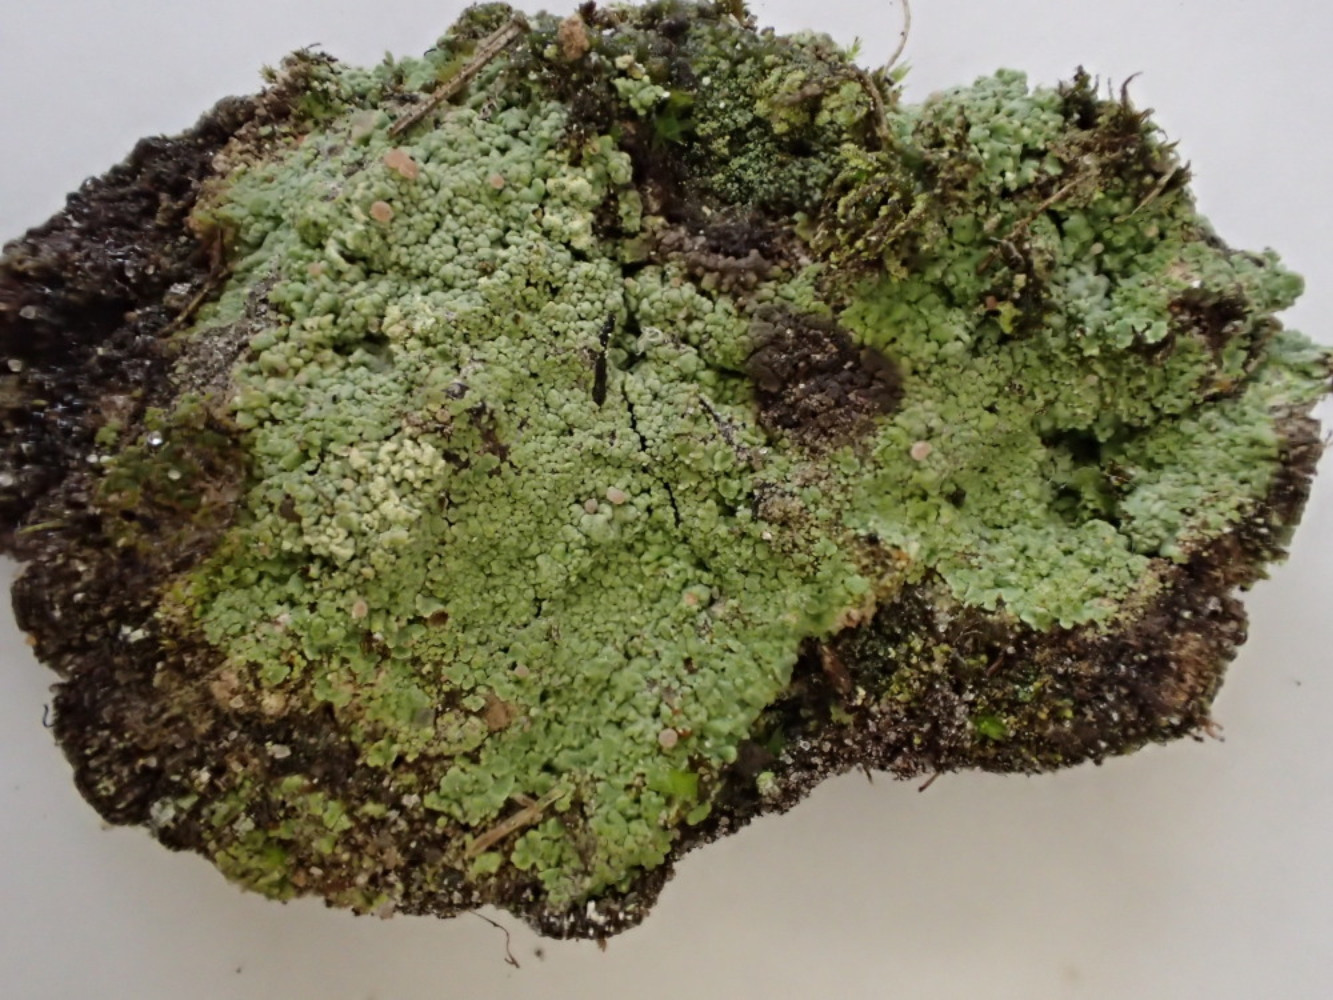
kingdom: Fungi
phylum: Ascomycota
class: Lecanoromycetes
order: Baeomycetales
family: Baeomycetaceae
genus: Baeomyces
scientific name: Baeomyces rufus
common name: rødbrun svampelav
